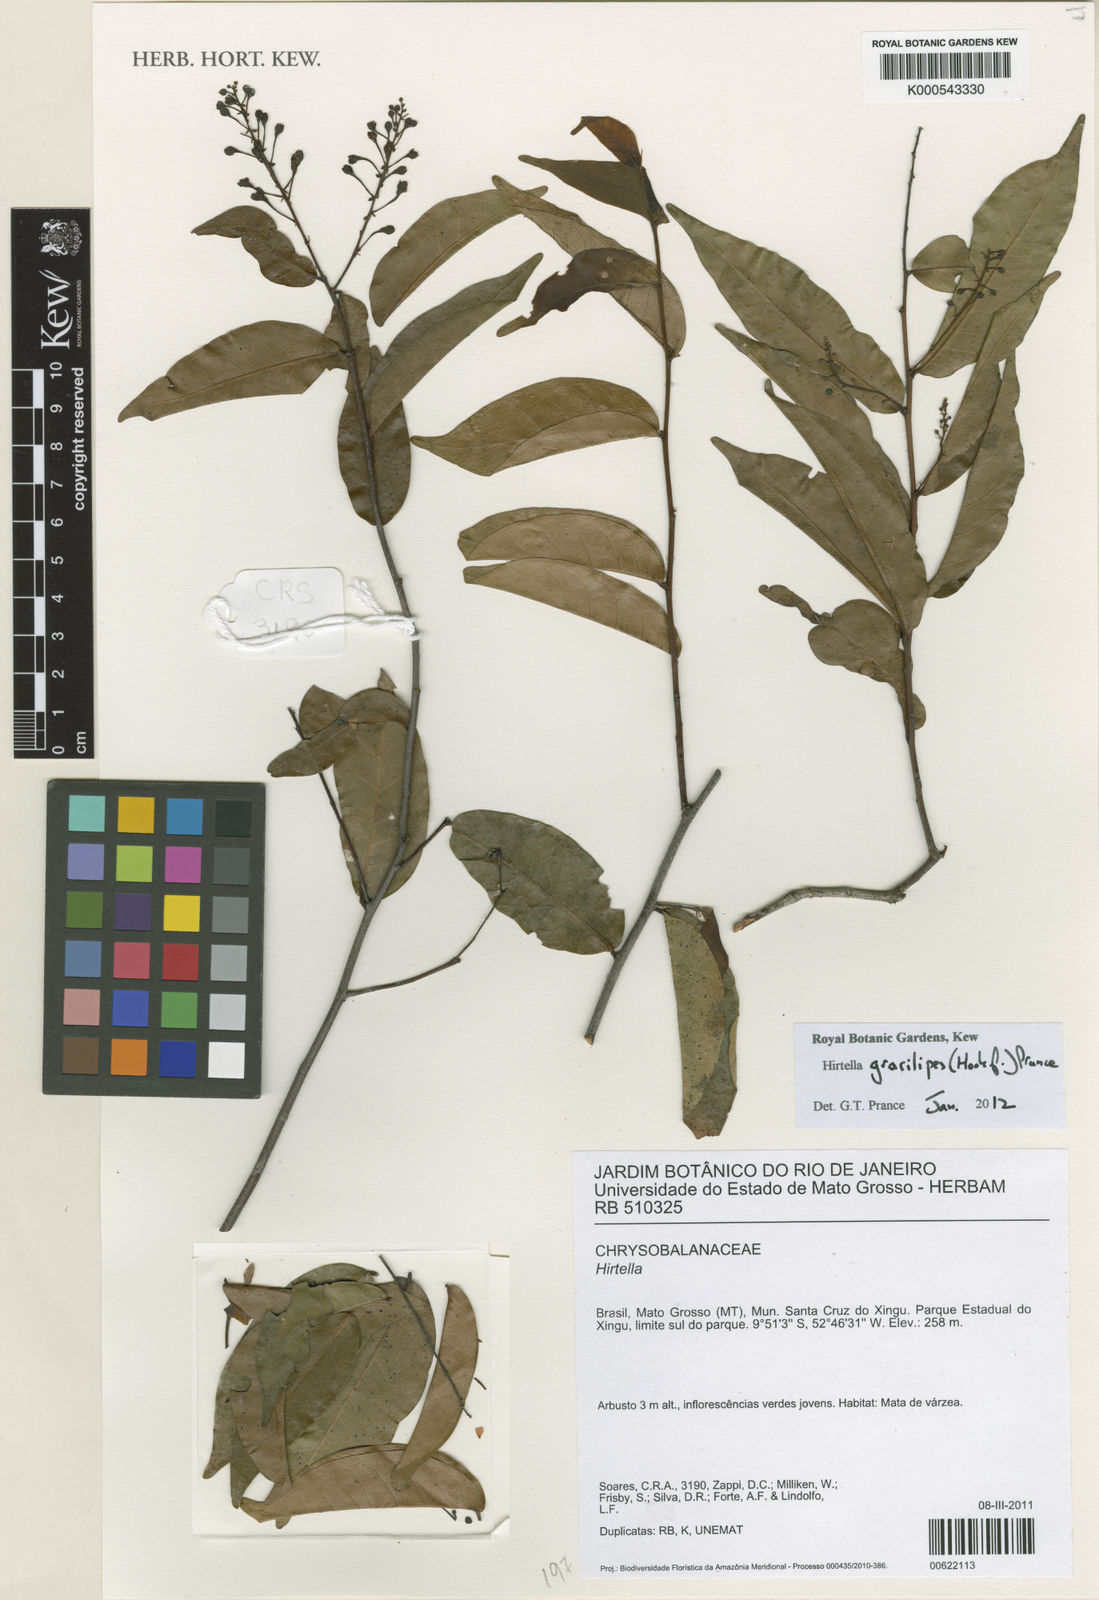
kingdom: Plantae
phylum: Tracheophyta
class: Magnoliopsida
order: Malpighiales
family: Chrysobalanaceae
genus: Hirtella
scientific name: Hirtella gracilipes
